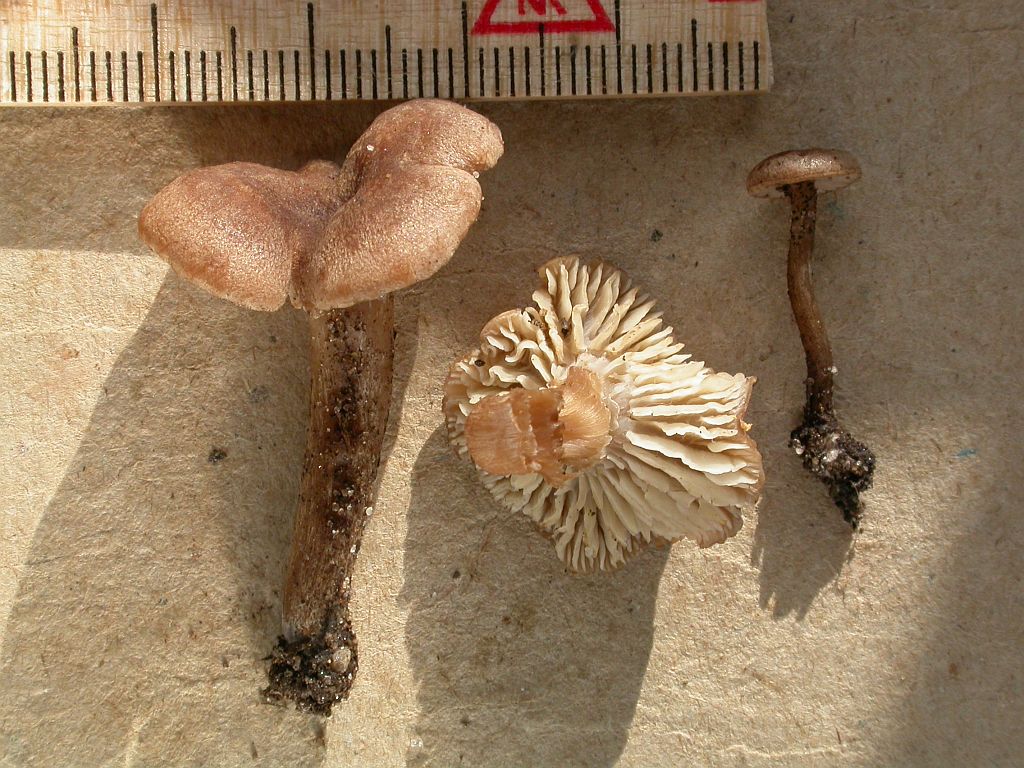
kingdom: Fungi
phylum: Basidiomycota
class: Agaricomycetes
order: Agaricales
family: Callistosporiaceae
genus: Pseudolaccaria
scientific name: Pseudolaccaria pachyphylla
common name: hvælvet tykblad
